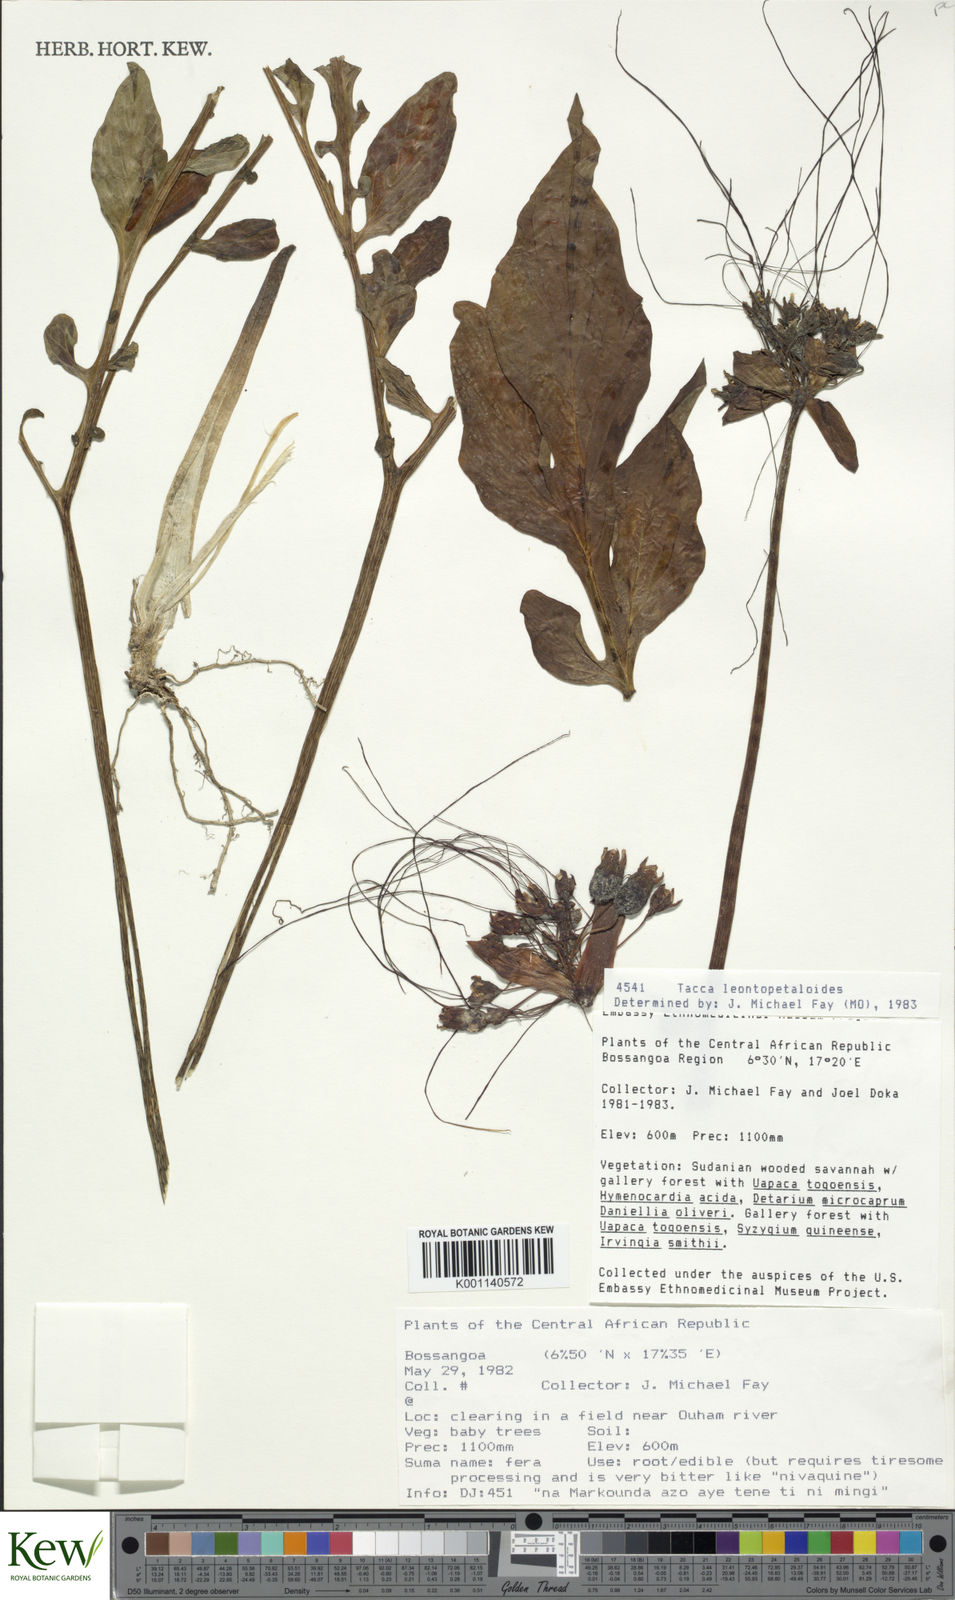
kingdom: Plantae
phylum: Tracheophyta
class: Liliopsida
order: Dioscoreales
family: Dioscoreaceae
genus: Tacca
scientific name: Tacca leontopetaloides
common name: Arrowroot
